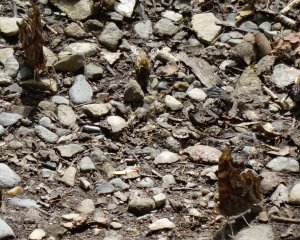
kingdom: Animalia
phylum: Arthropoda
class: Insecta
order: Lepidoptera
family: Nymphalidae
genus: Polygonia
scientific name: Polygonia comma
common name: Eastern Comma
